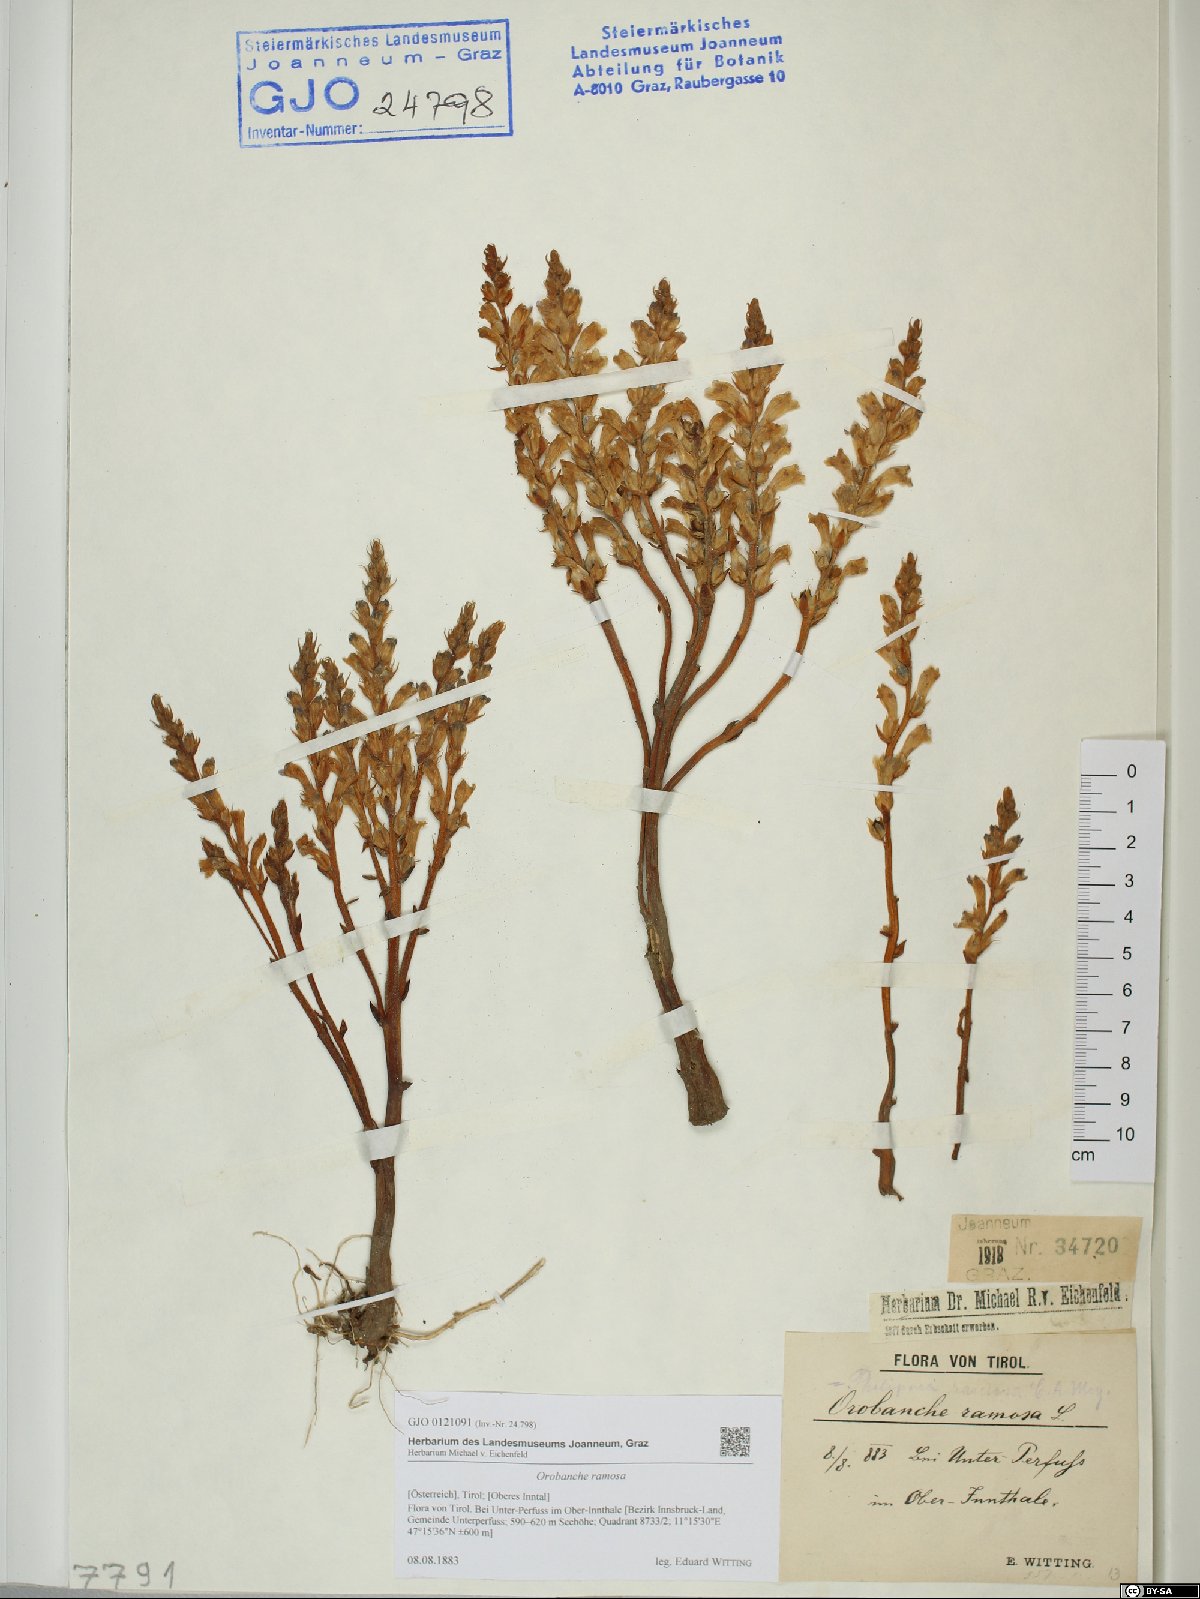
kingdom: Plantae
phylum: Tracheophyta
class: Magnoliopsida
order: Lamiales
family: Orobanchaceae
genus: Phelipanche
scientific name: Phelipanche ramosa
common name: Branched broomrape
